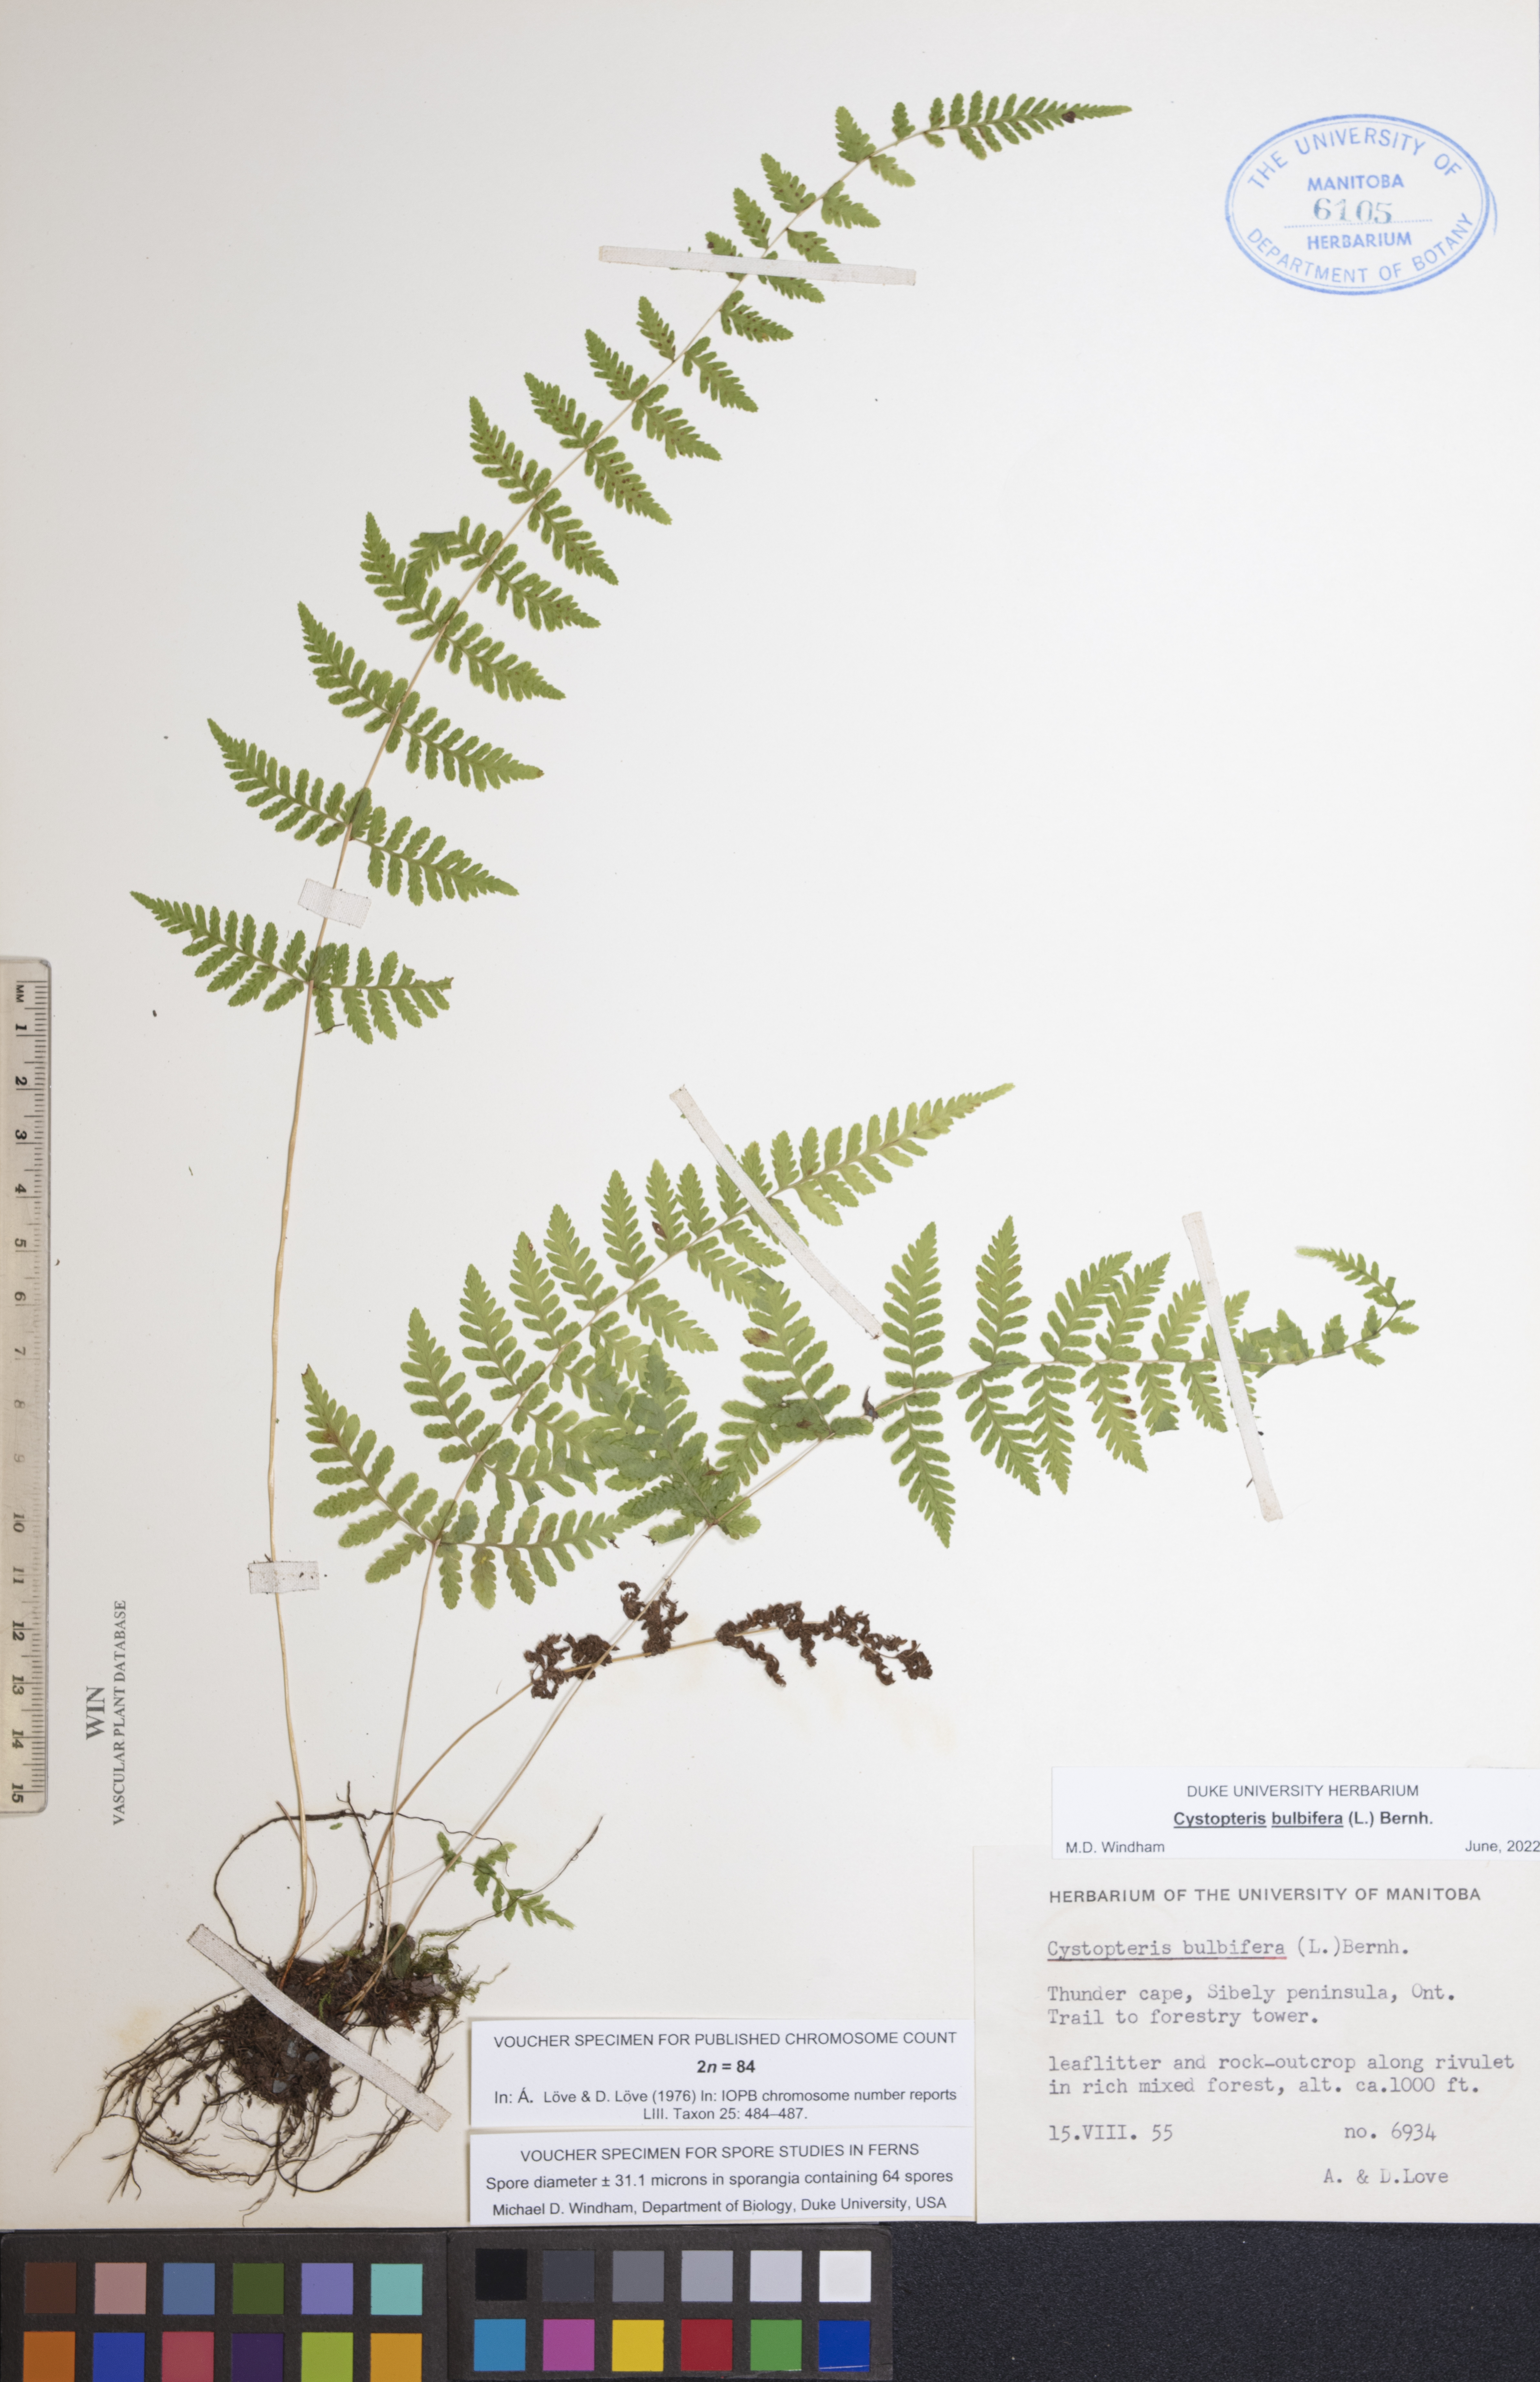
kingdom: Plantae
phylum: Tracheophyta
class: Polypodiopsida
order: Polypodiales
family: Cystopteridaceae
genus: Cystopteris
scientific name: Cystopteris bulbifera
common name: Bulblet bladder fern
